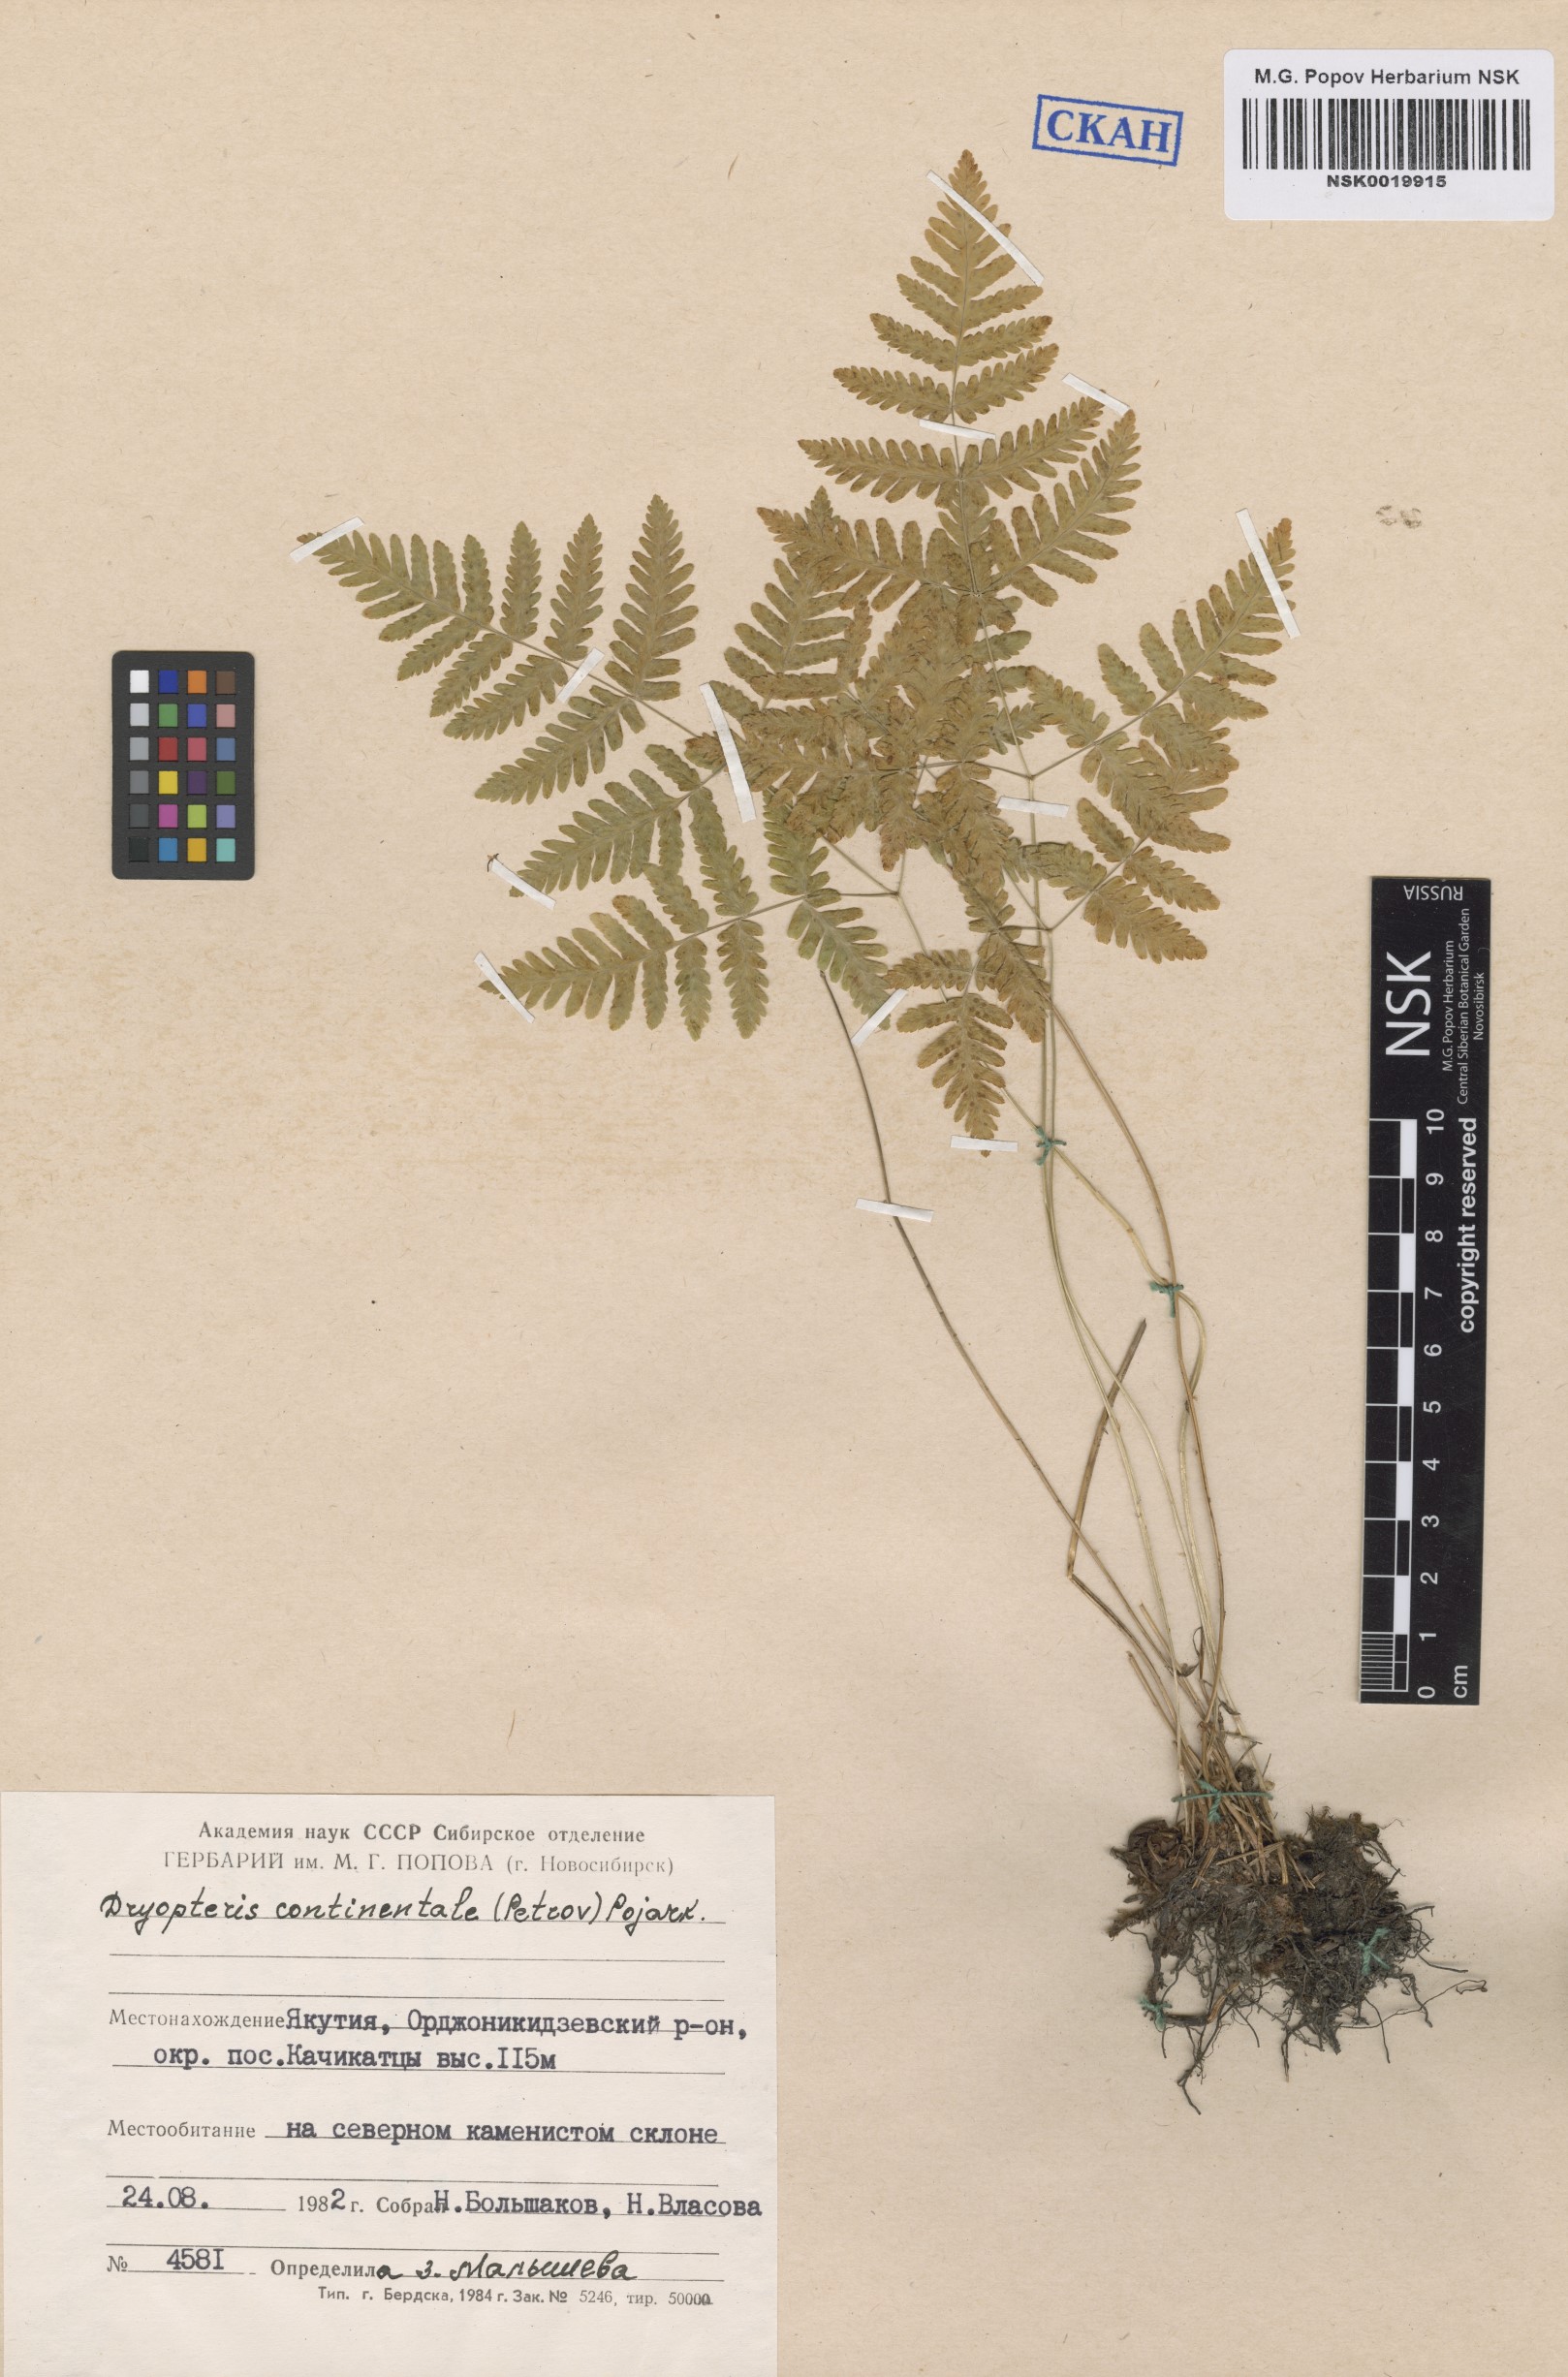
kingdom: Plantae
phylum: Tracheophyta
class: Polypodiopsida
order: Polypodiales
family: Cystopteridaceae
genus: Gymnocarpium
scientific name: Gymnocarpium continentale
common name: Asian oak fern
